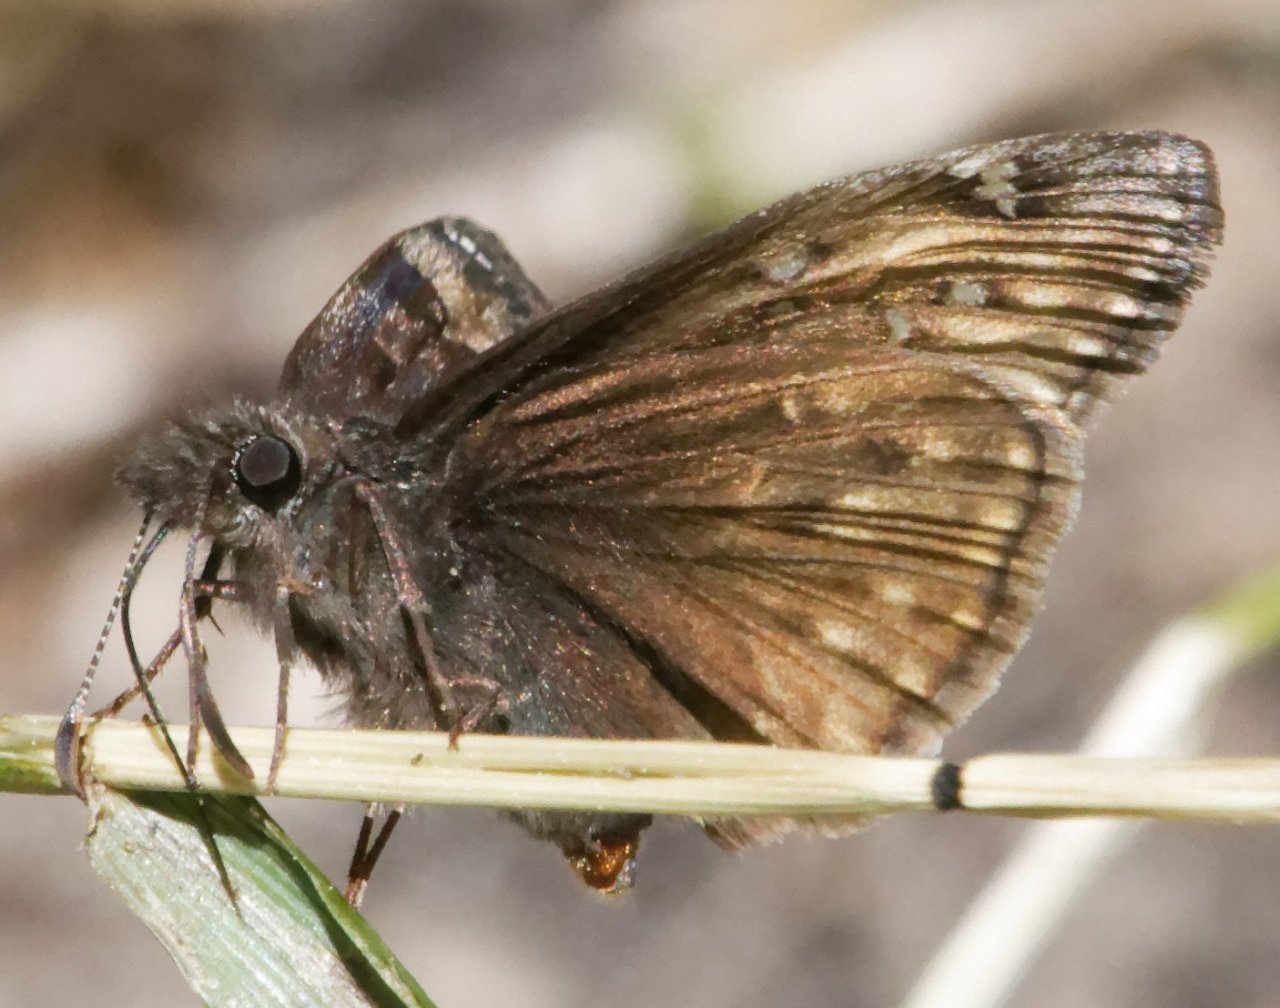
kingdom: Animalia
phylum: Arthropoda
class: Insecta
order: Lepidoptera
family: Hesperiidae
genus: Erynnis
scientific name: Erynnis
